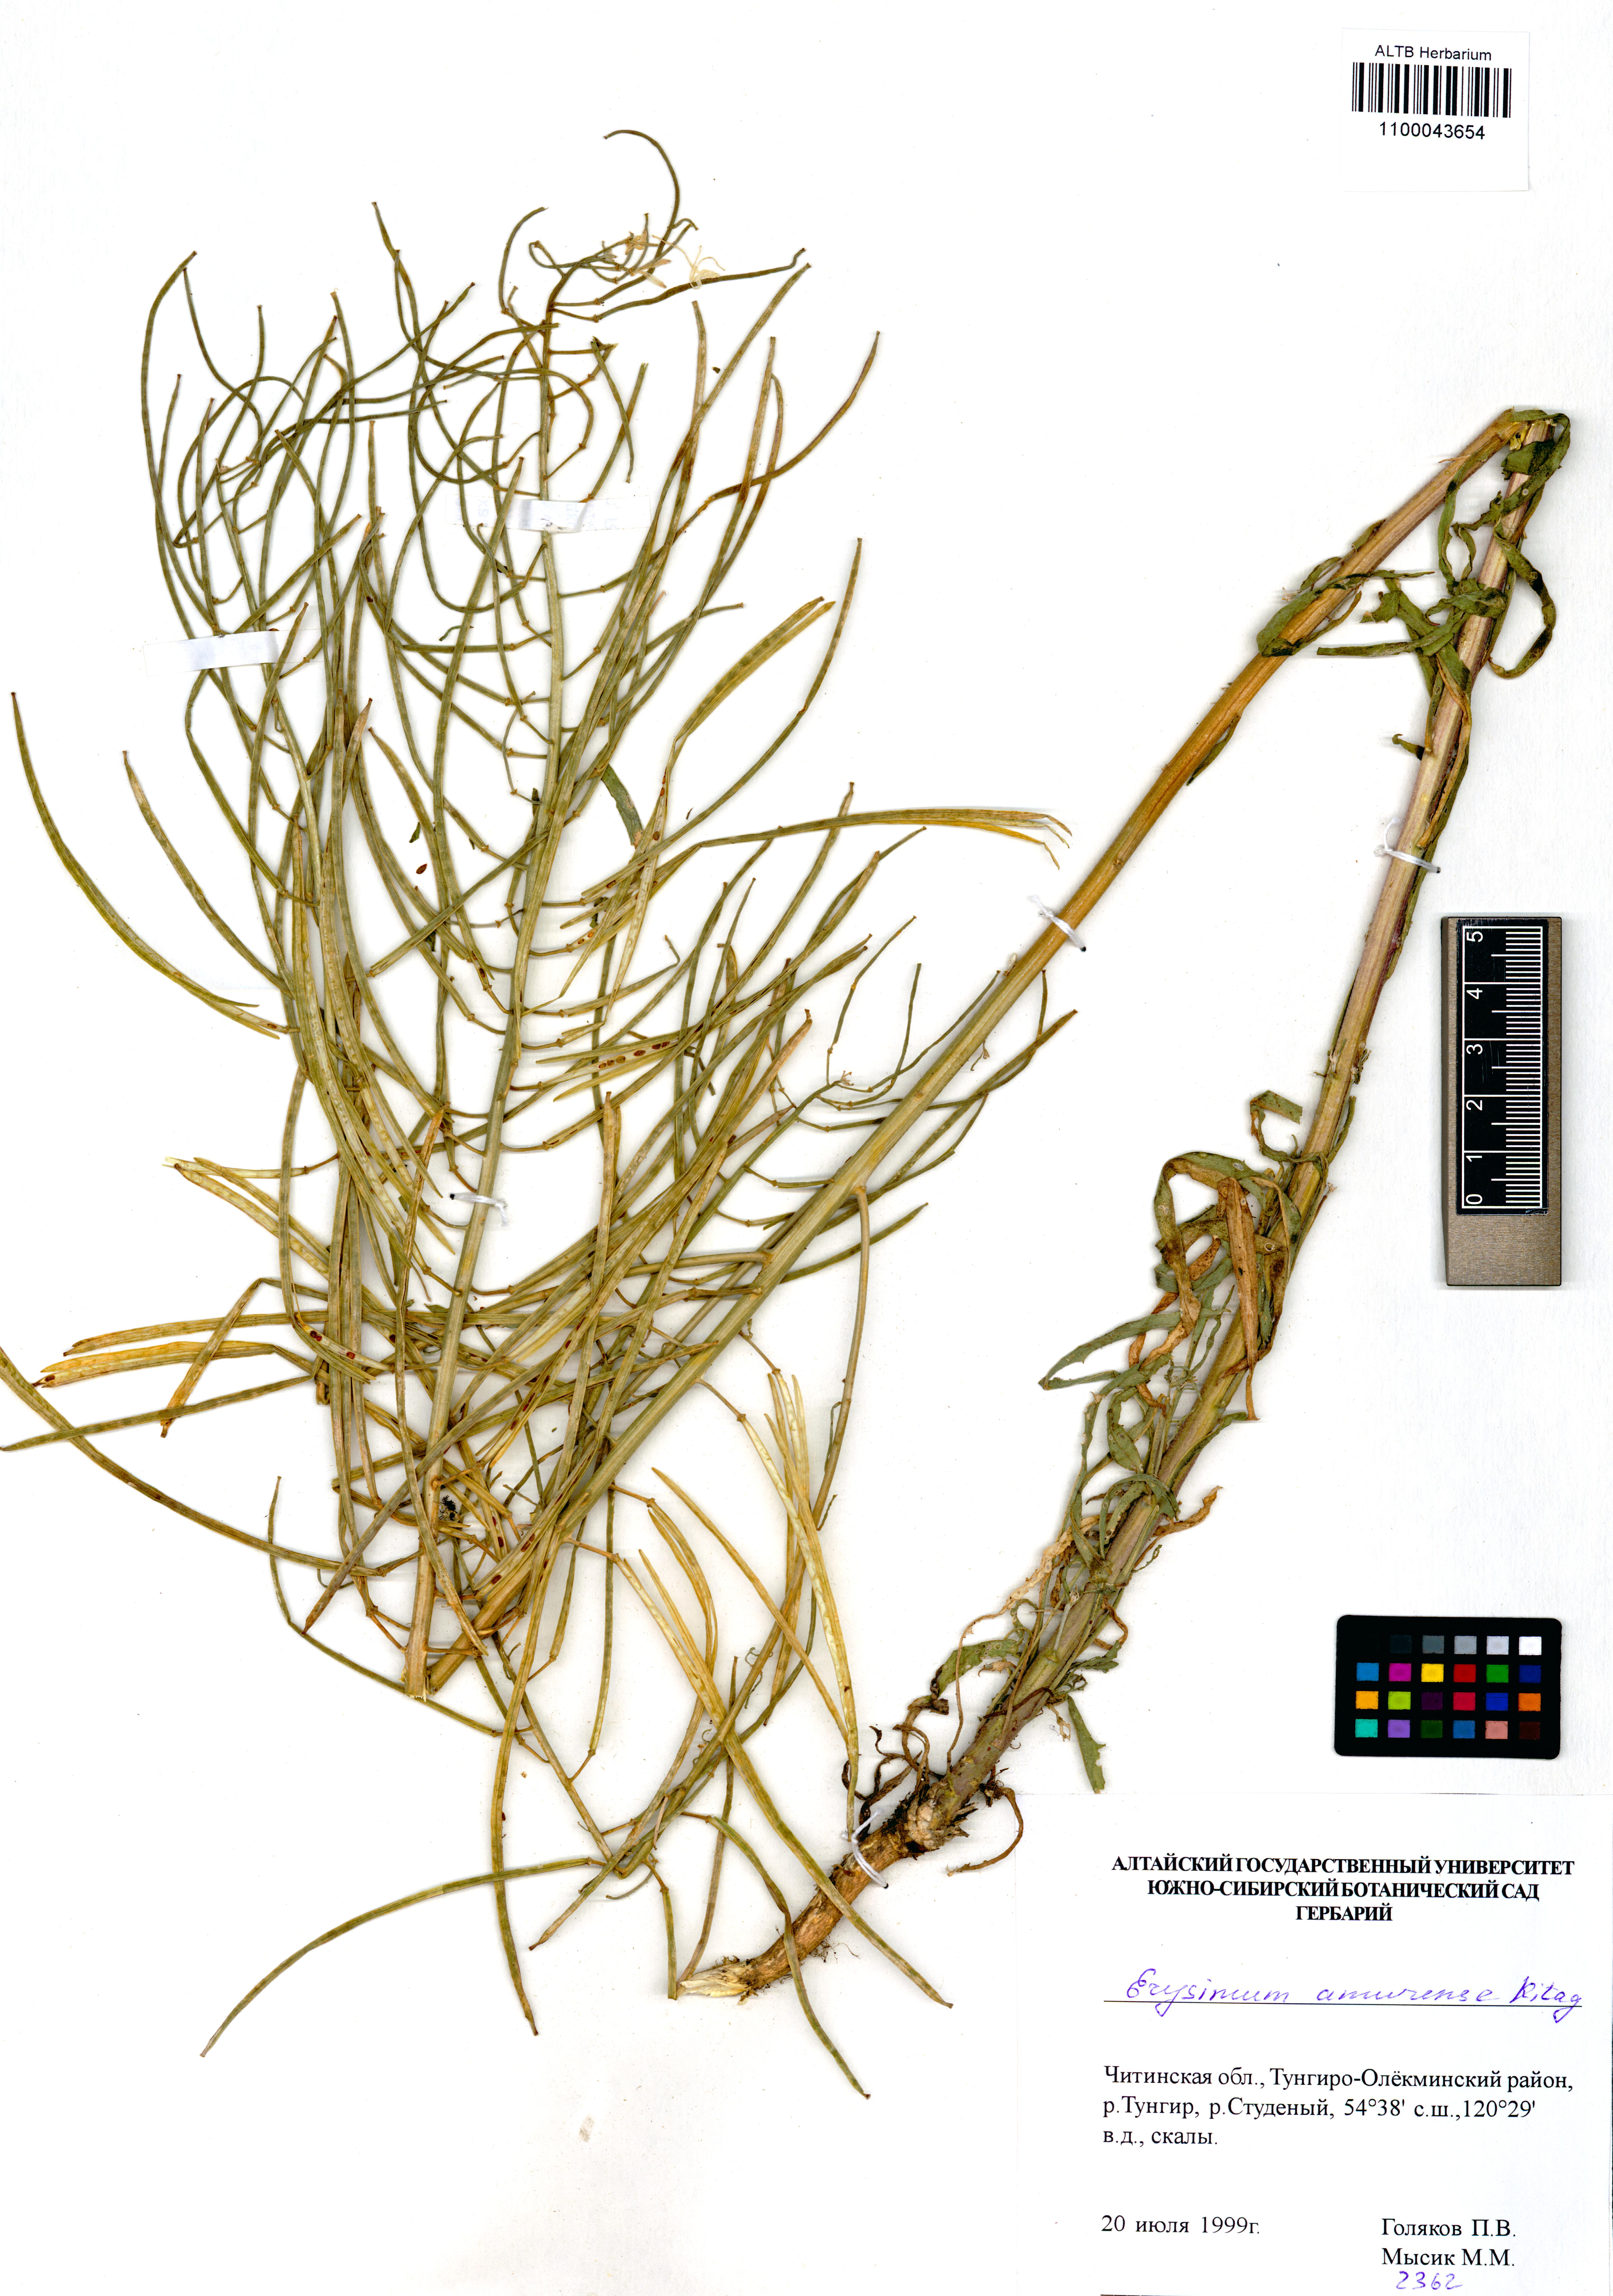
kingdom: Plantae
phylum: Tracheophyta
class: Magnoliopsida
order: Brassicales
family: Brassicaceae
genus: Erysimum
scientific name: Erysimum amurense
